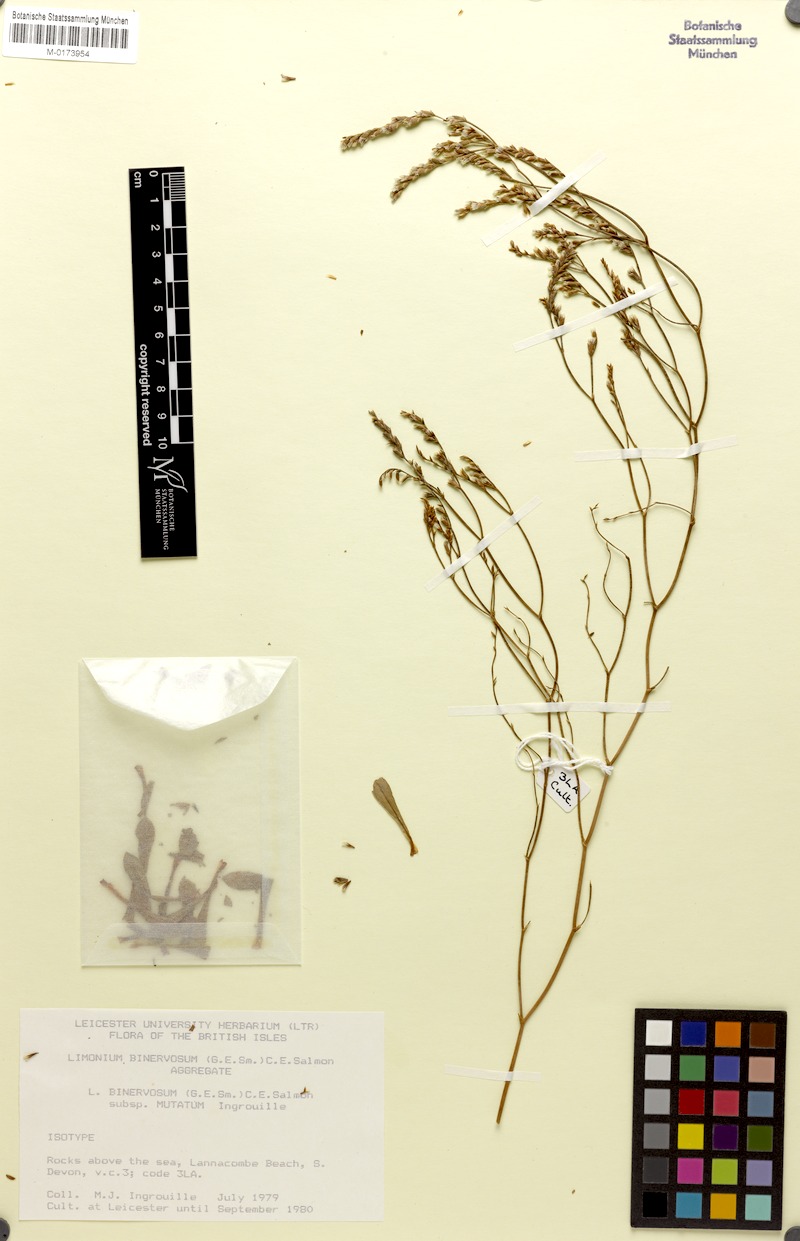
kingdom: Plantae
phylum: Tracheophyta
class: Magnoliopsida
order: Caryophyllales
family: Plumbaginaceae
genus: Limonium
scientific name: Limonium binervosum
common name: Rock sea-lavender
